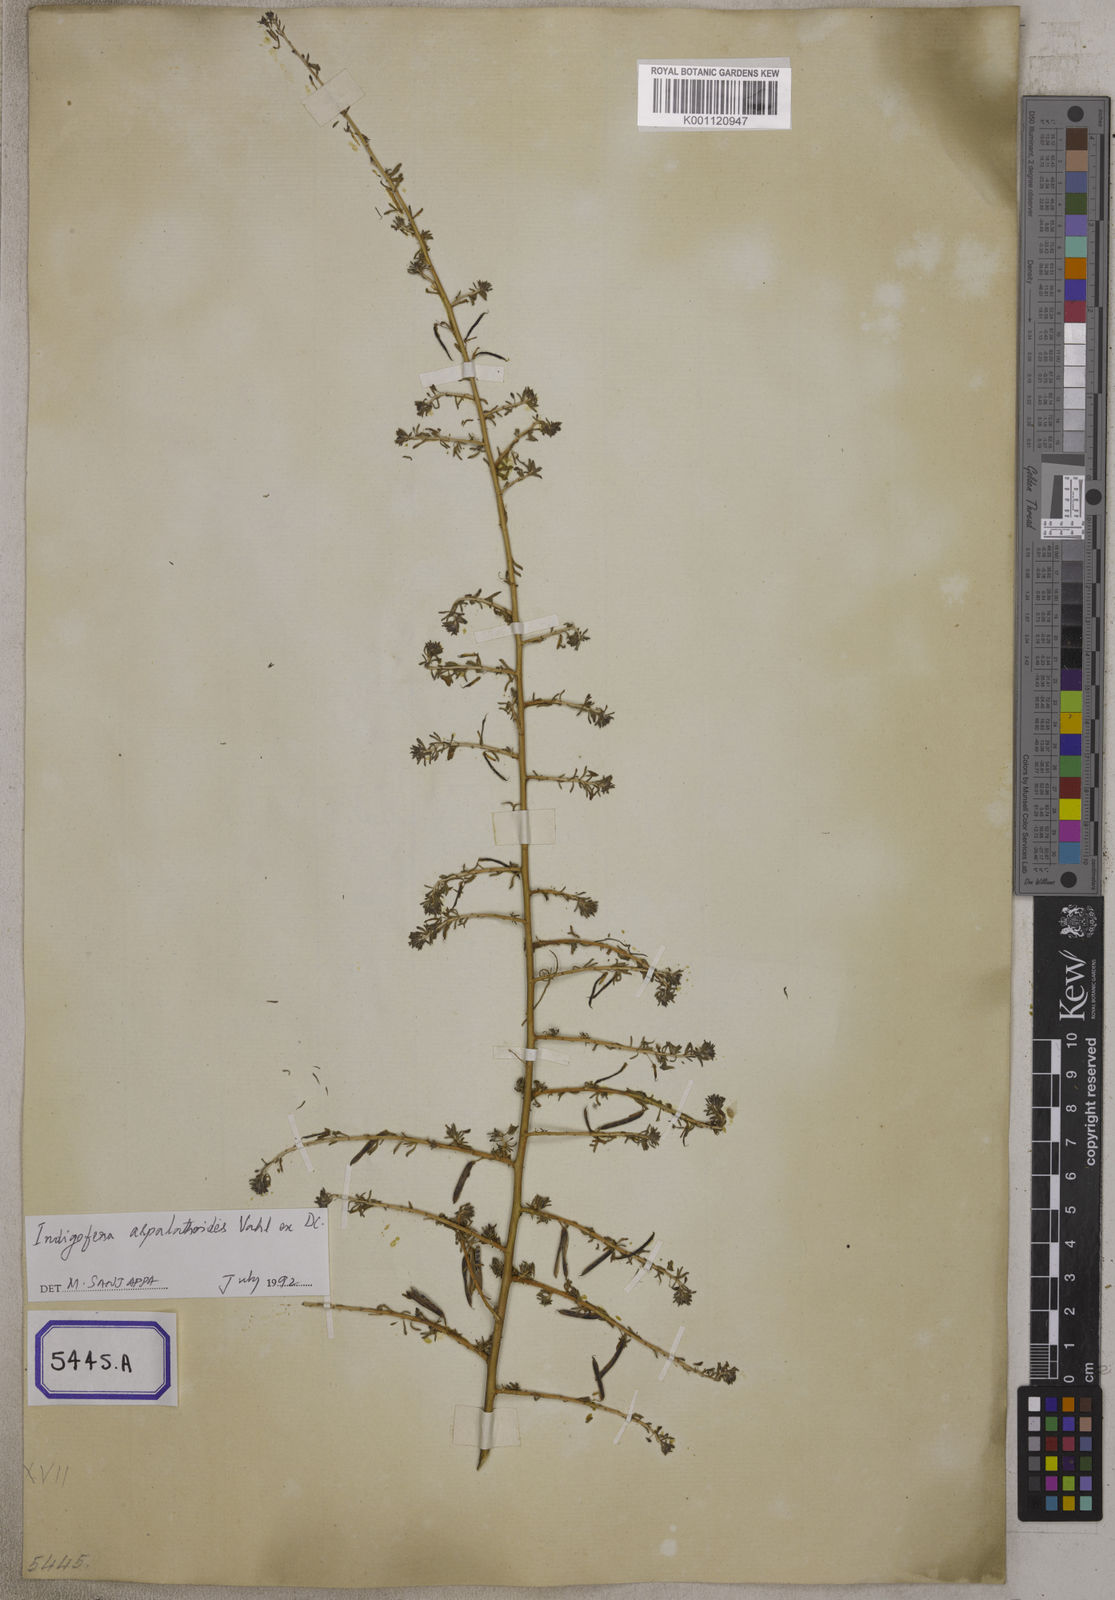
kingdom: Plantae
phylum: Tracheophyta
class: Magnoliopsida
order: Fabales
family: Fabaceae
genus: Indigofera
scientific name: Indigofera aspalathoides
